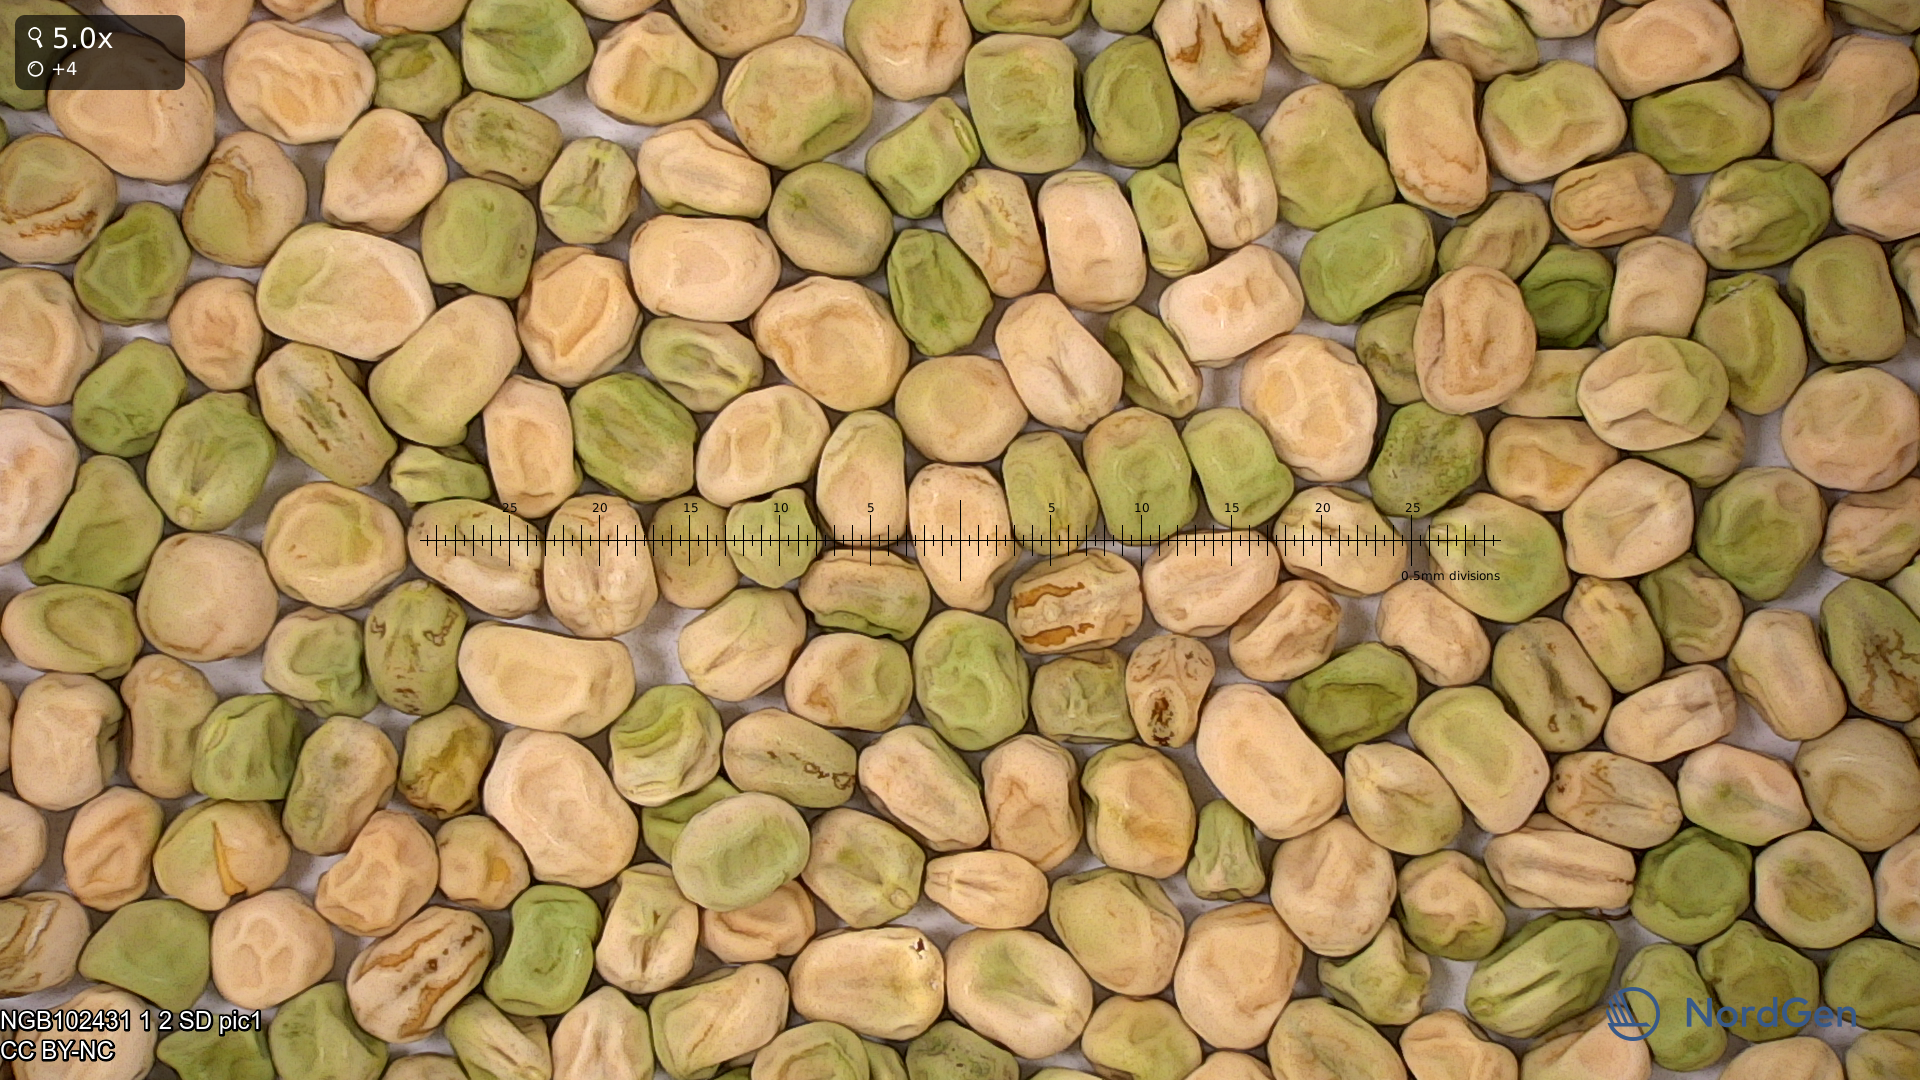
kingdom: Plantae
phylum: Tracheophyta
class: Magnoliopsida
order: Fabales
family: Fabaceae
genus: Lathyrus
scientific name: Lathyrus oleraceus
